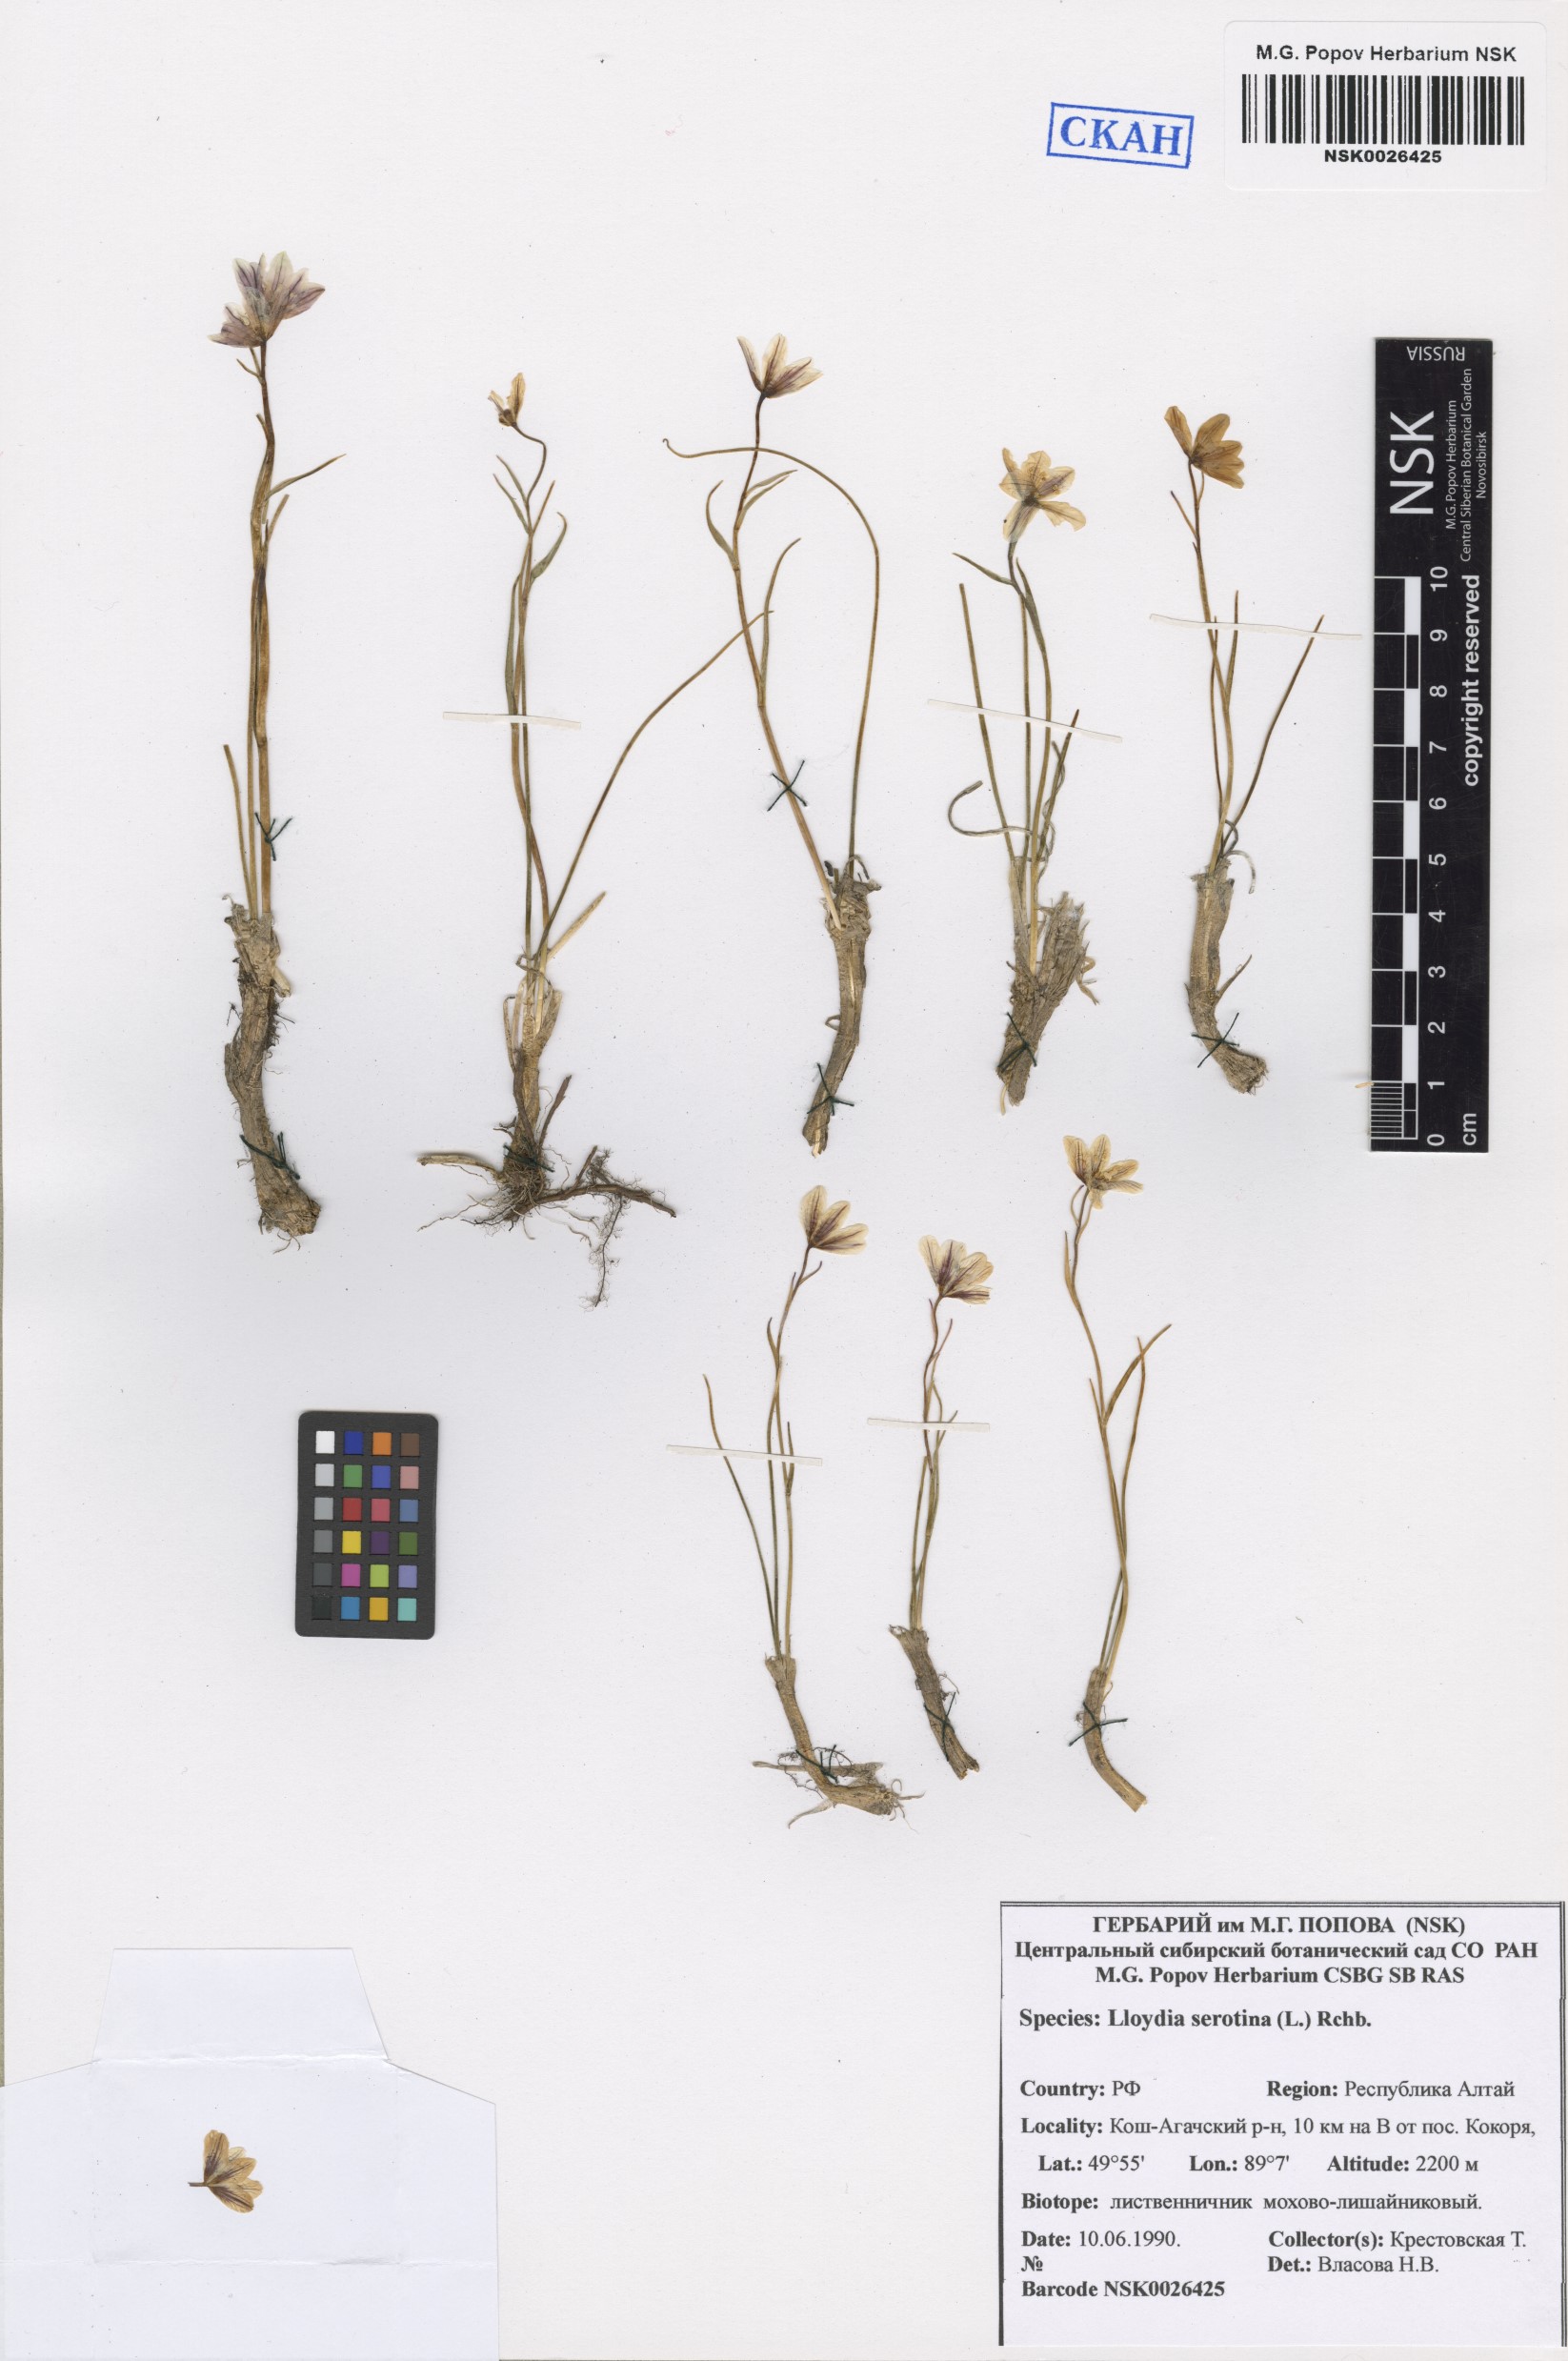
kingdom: Plantae
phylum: Tracheophyta
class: Liliopsida
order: Liliales
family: Liliaceae
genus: Gagea
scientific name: Gagea serotina
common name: Snowdon lily
